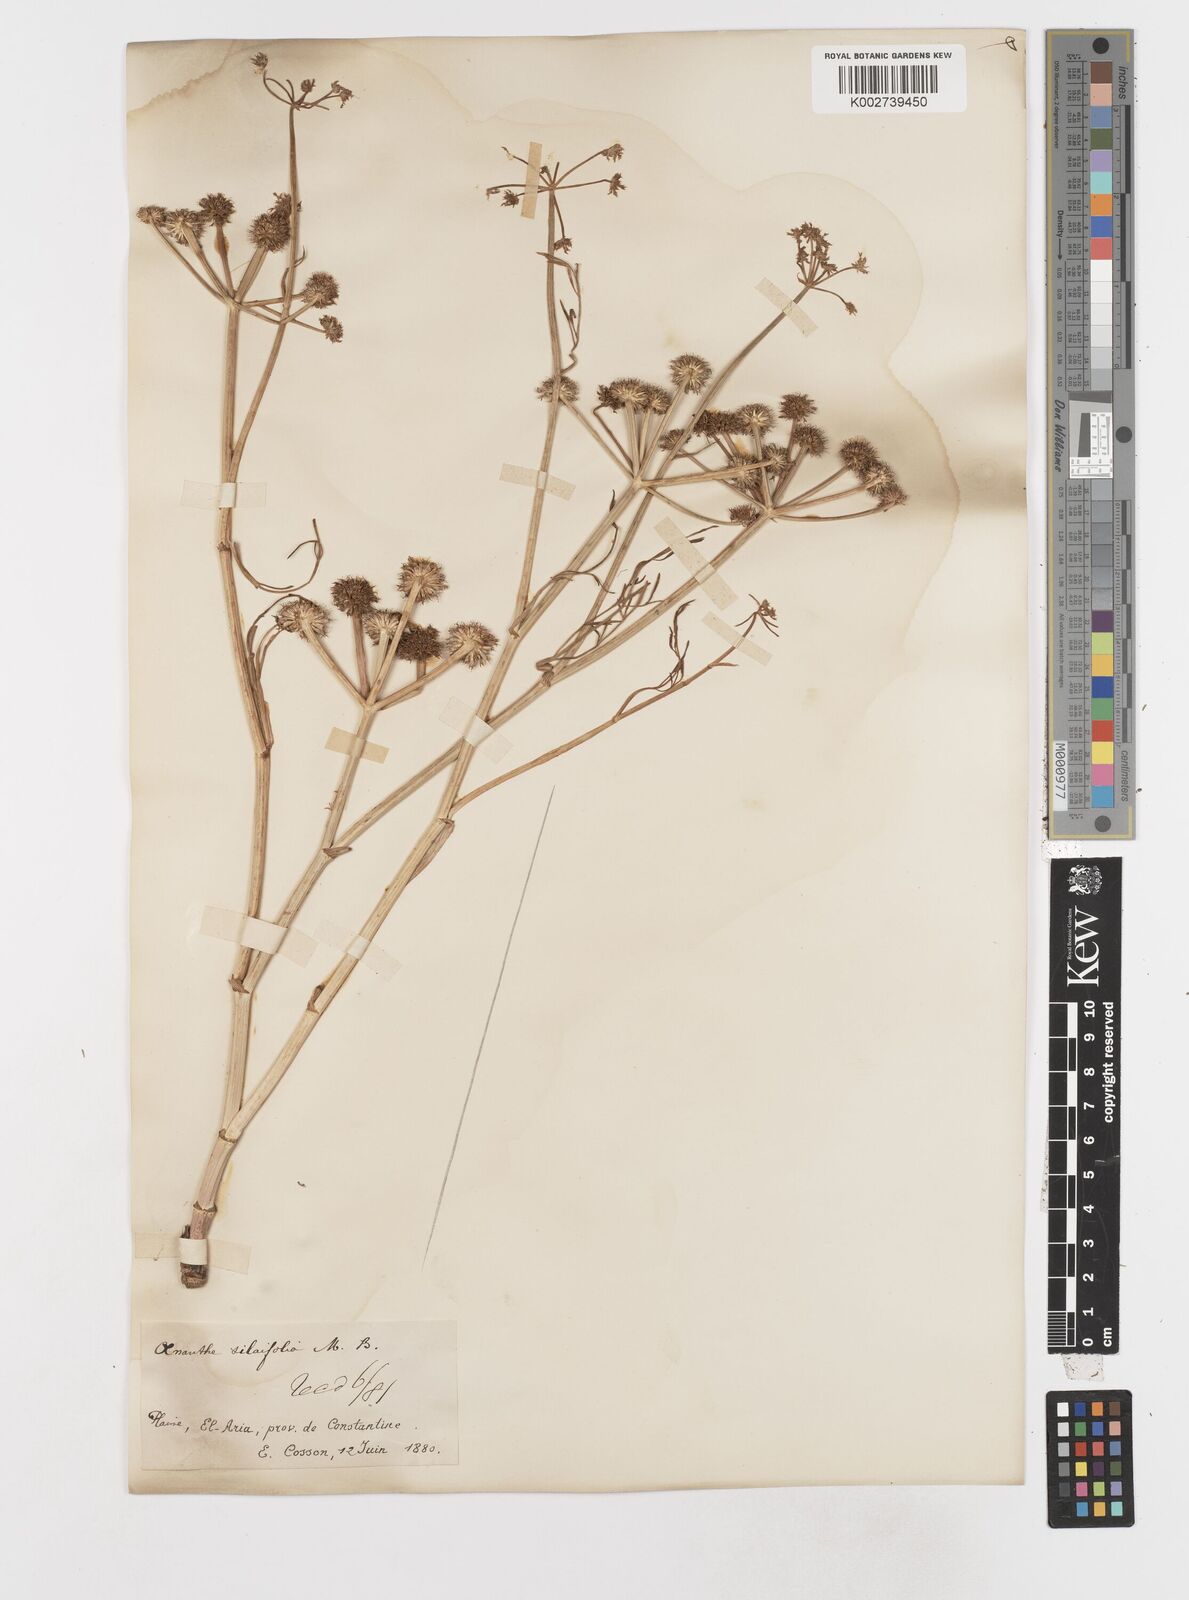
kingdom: Plantae
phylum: Tracheophyta
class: Magnoliopsida
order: Apiales
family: Apiaceae
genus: Oenanthe
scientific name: Oenanthe silaifolia
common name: Narrow-leaved water-dropwort
